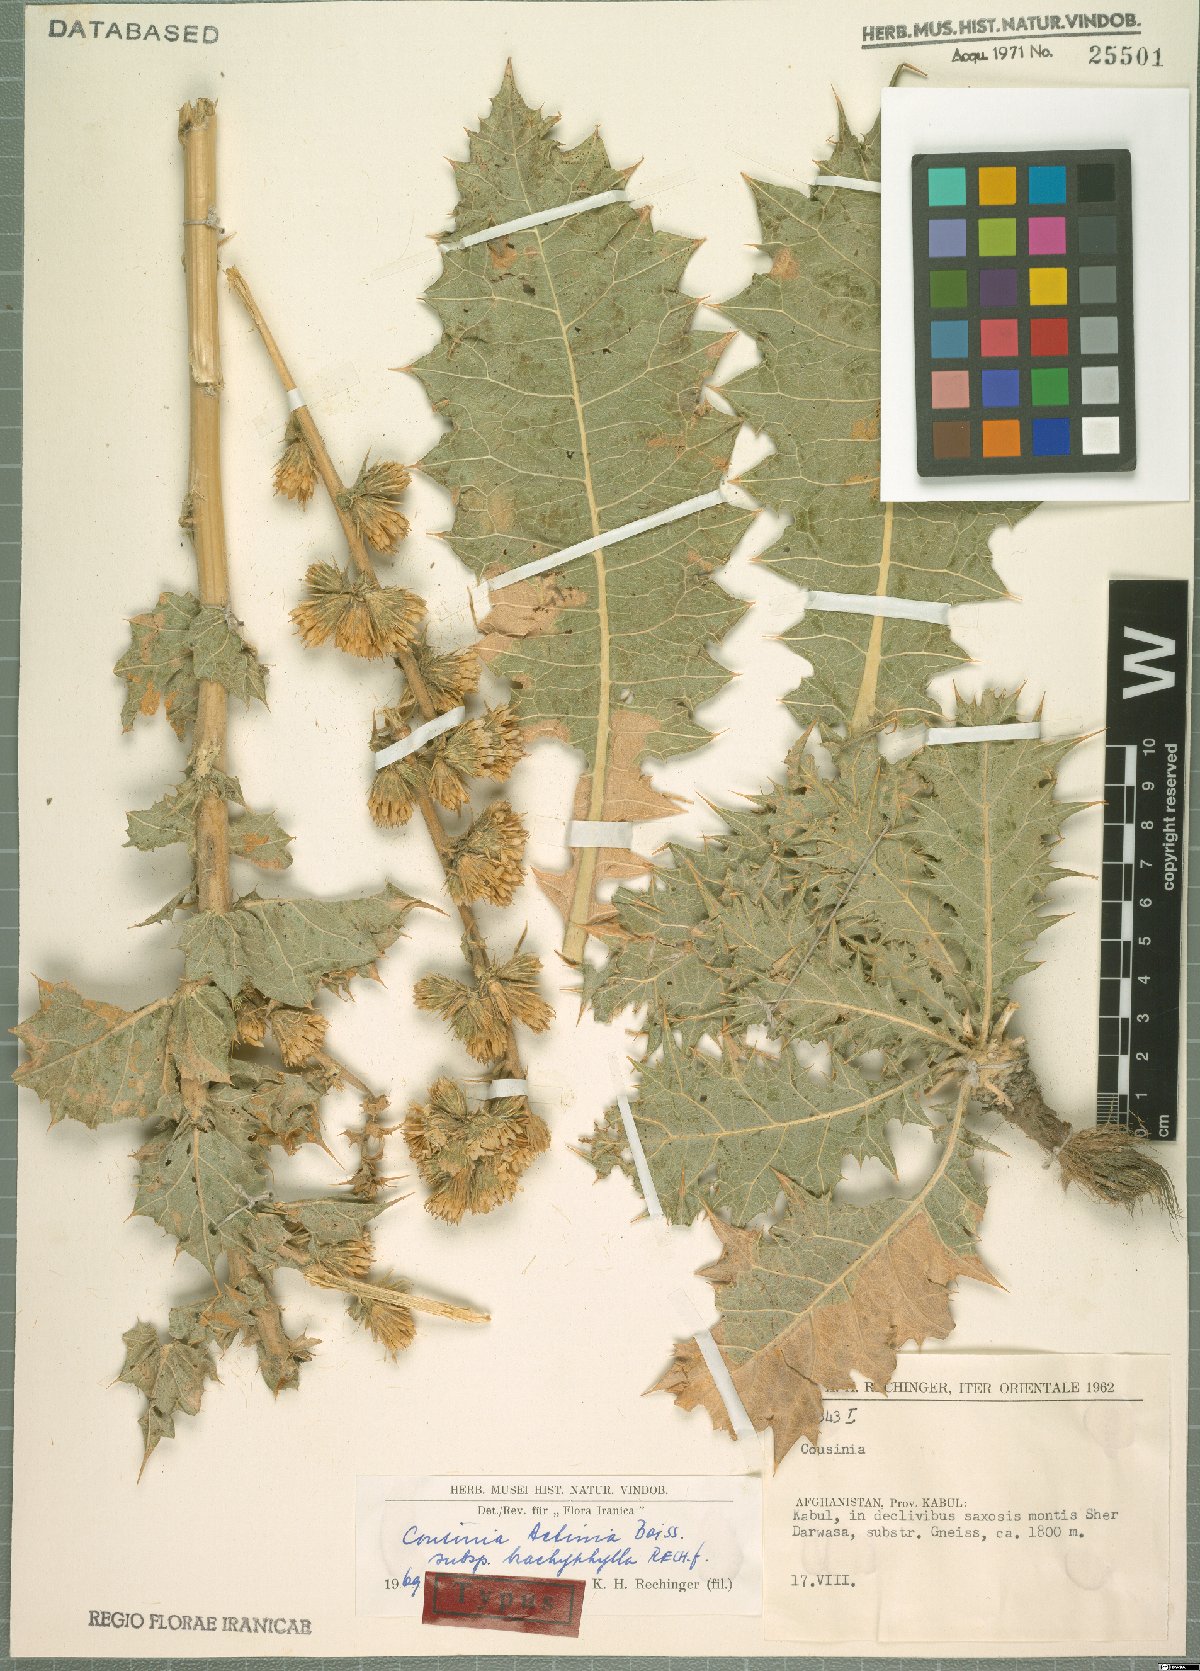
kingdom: Plantae
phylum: Tracheophyta
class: Magnoliopsida
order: Asterales
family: Asteraceae
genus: Cousinia
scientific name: Cousinia actinia
